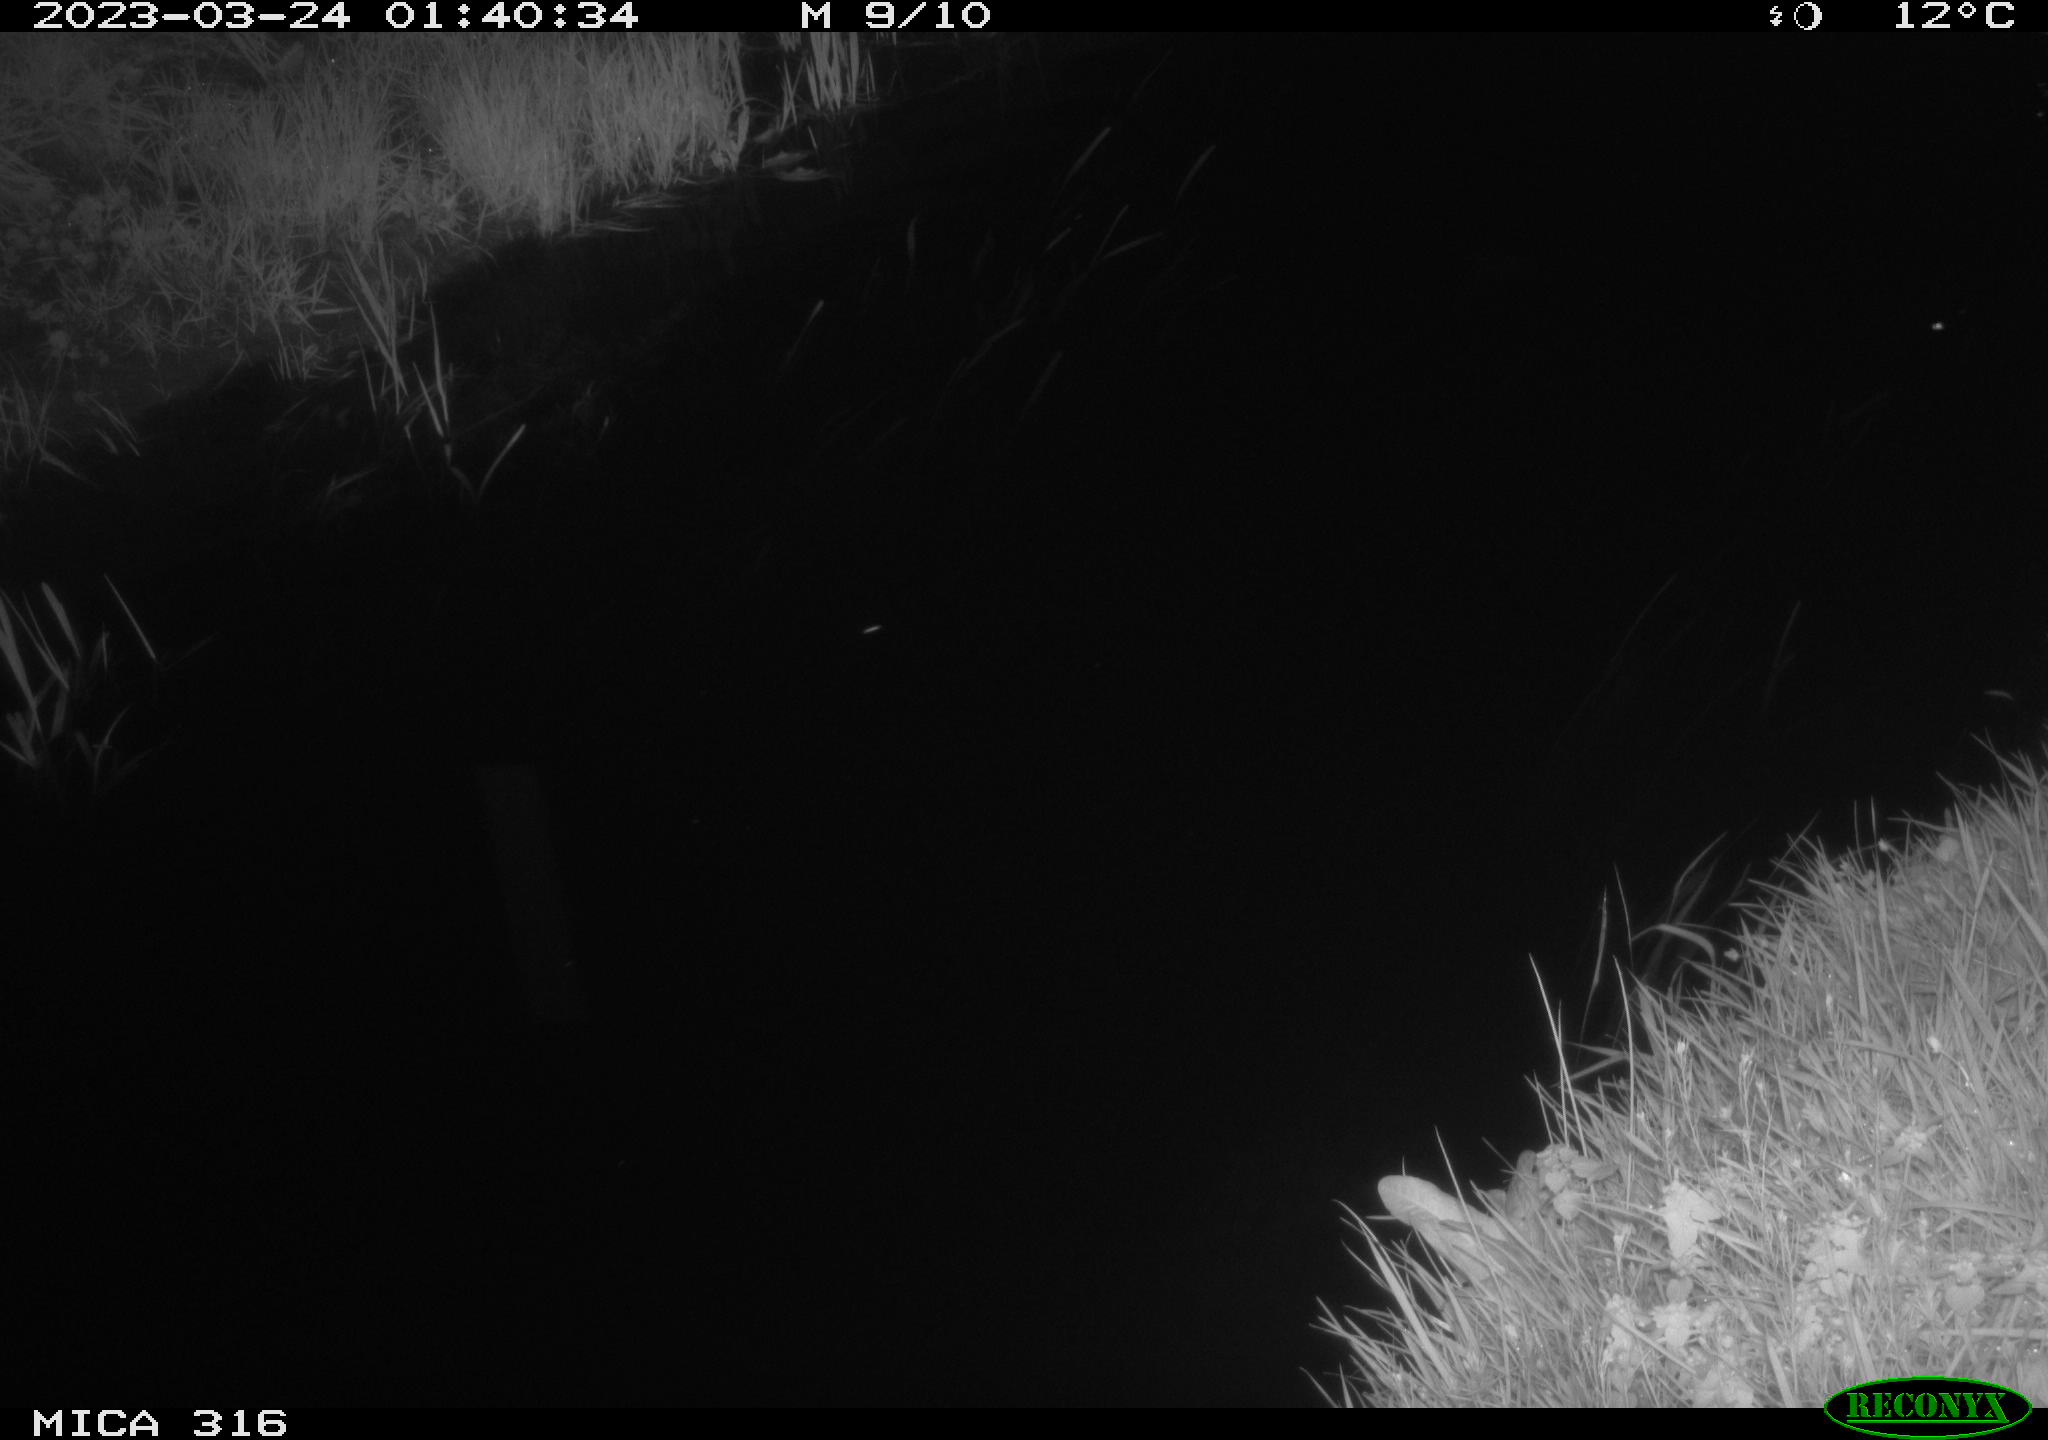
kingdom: Animalia
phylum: Chordata
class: Aves
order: Anseriformes
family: Anatidae
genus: Anas
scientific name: Anas
